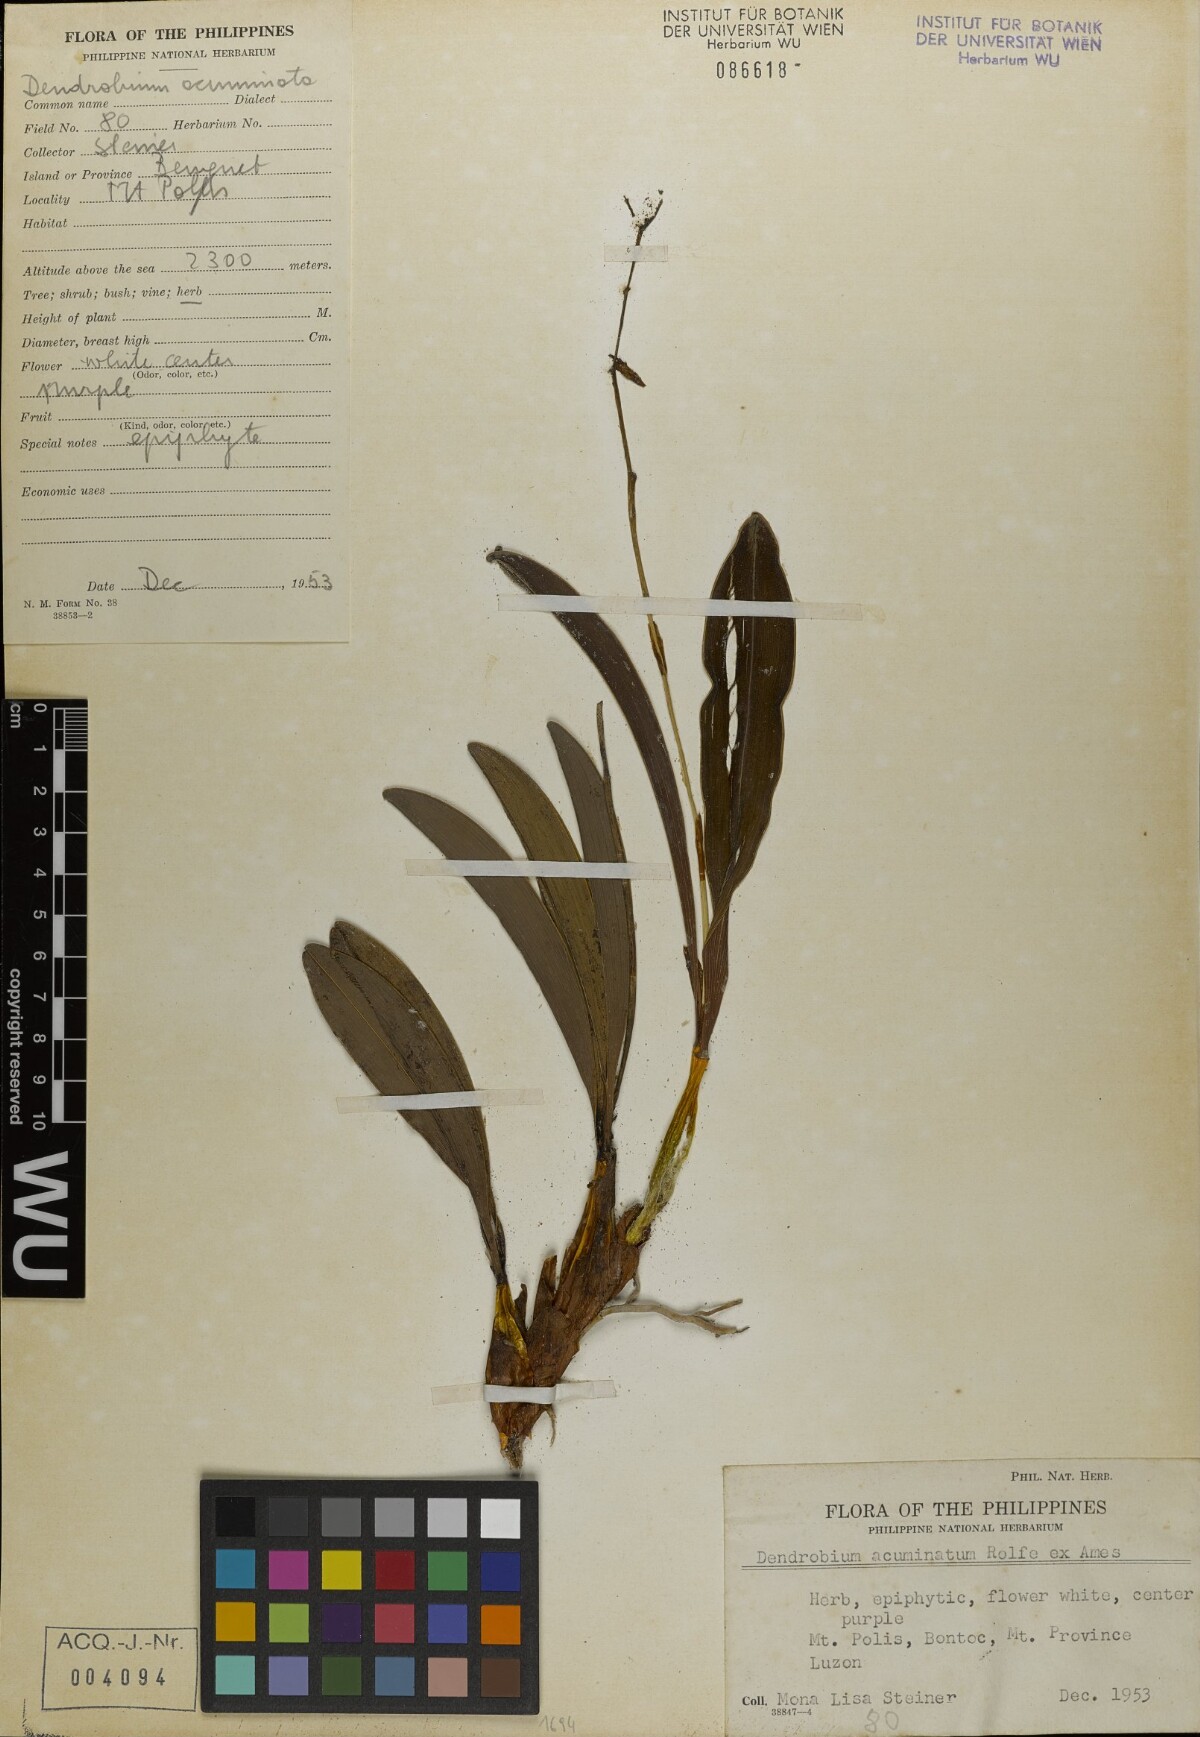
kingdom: Plantae
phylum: Tracheophyta
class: Liliopsida
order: Asparagales
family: Orchidaceae
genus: Dendrobium
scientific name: Dendrobium acutilingue
